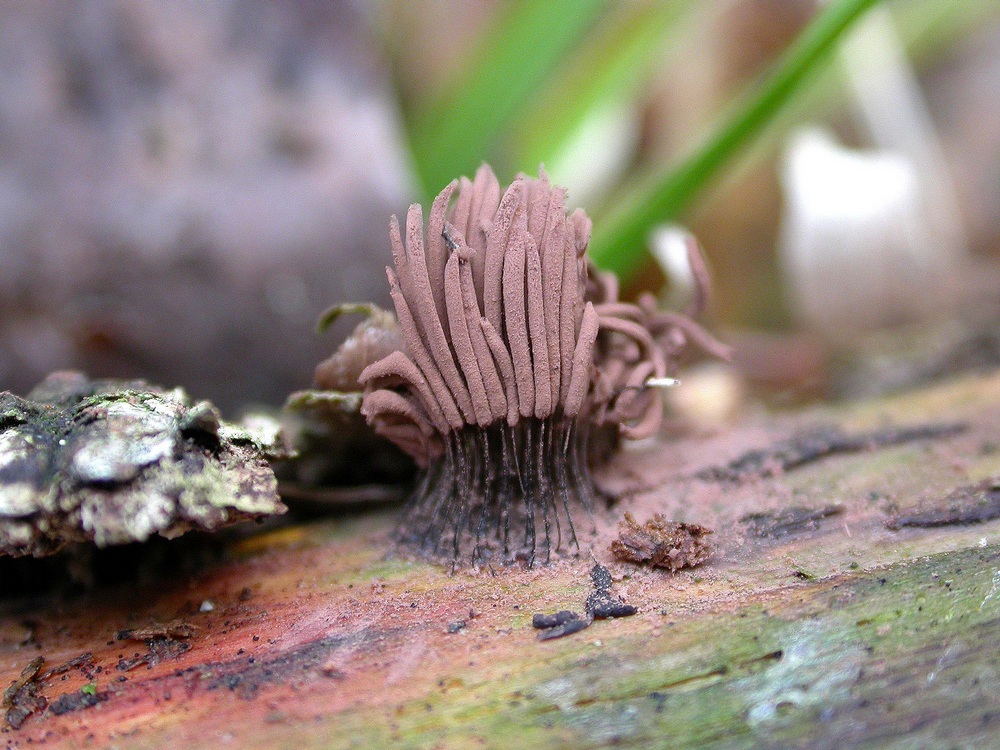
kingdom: Protozoa
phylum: Mycetozoa
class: Myxomycetes
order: Stemonitidales
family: Stemonitidaceae
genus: Stemonitis
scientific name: Stemonitis axifera
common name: rødbrun støvkølle
